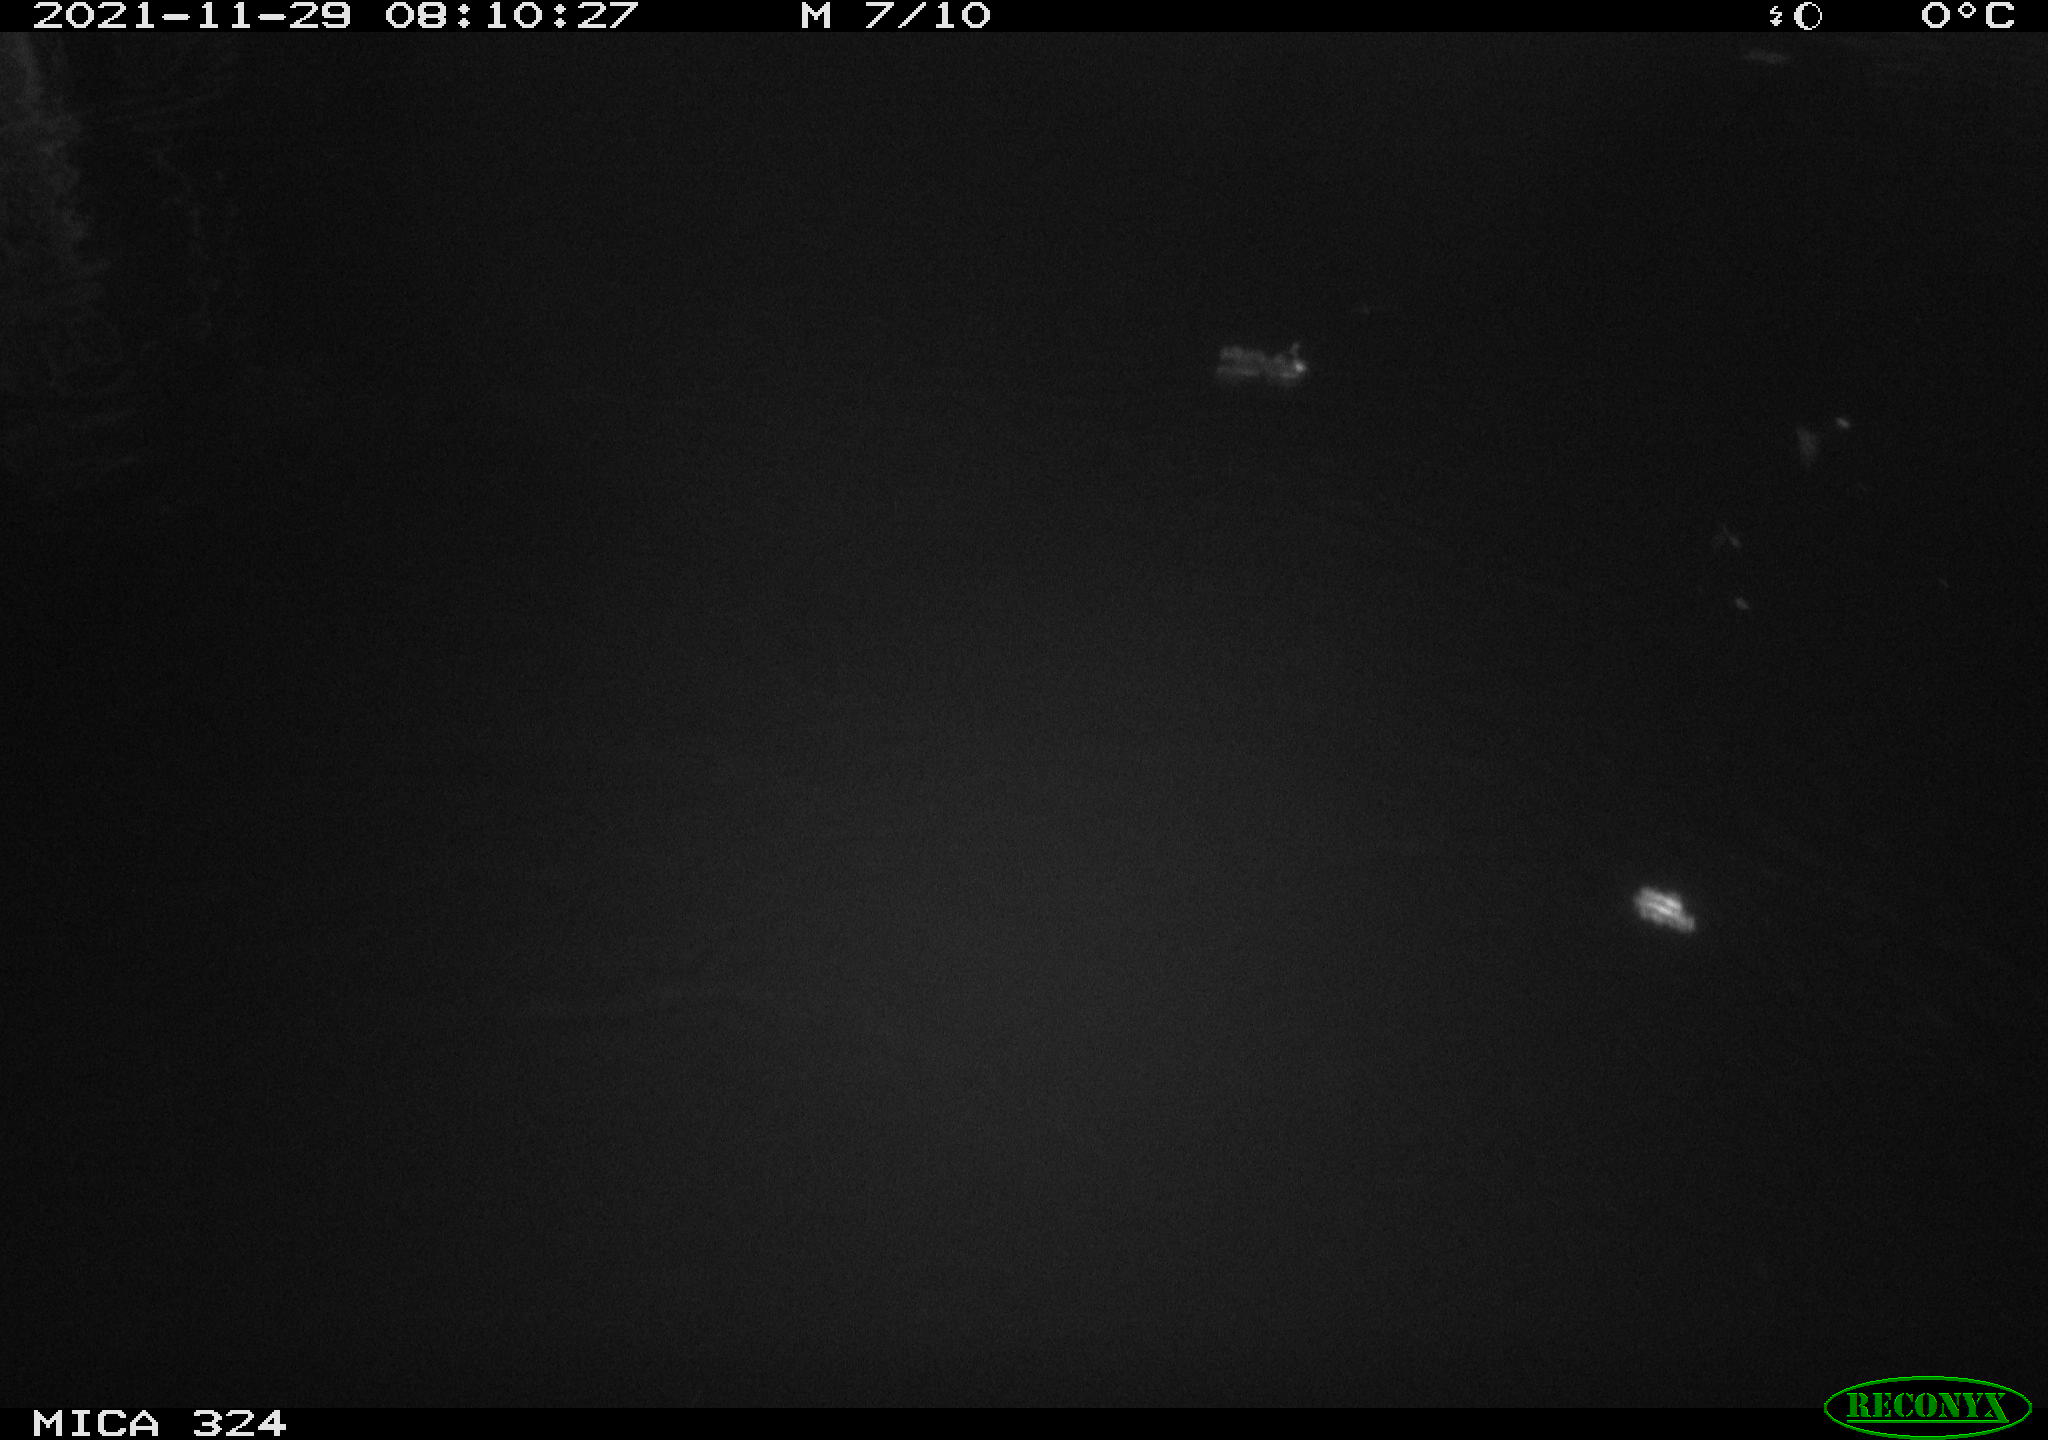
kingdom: Animalia
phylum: Chordata
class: Mammalia
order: Rodentia
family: Cricetidae
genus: Ondatra
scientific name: Ondatra zibethicus
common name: Muskrat
